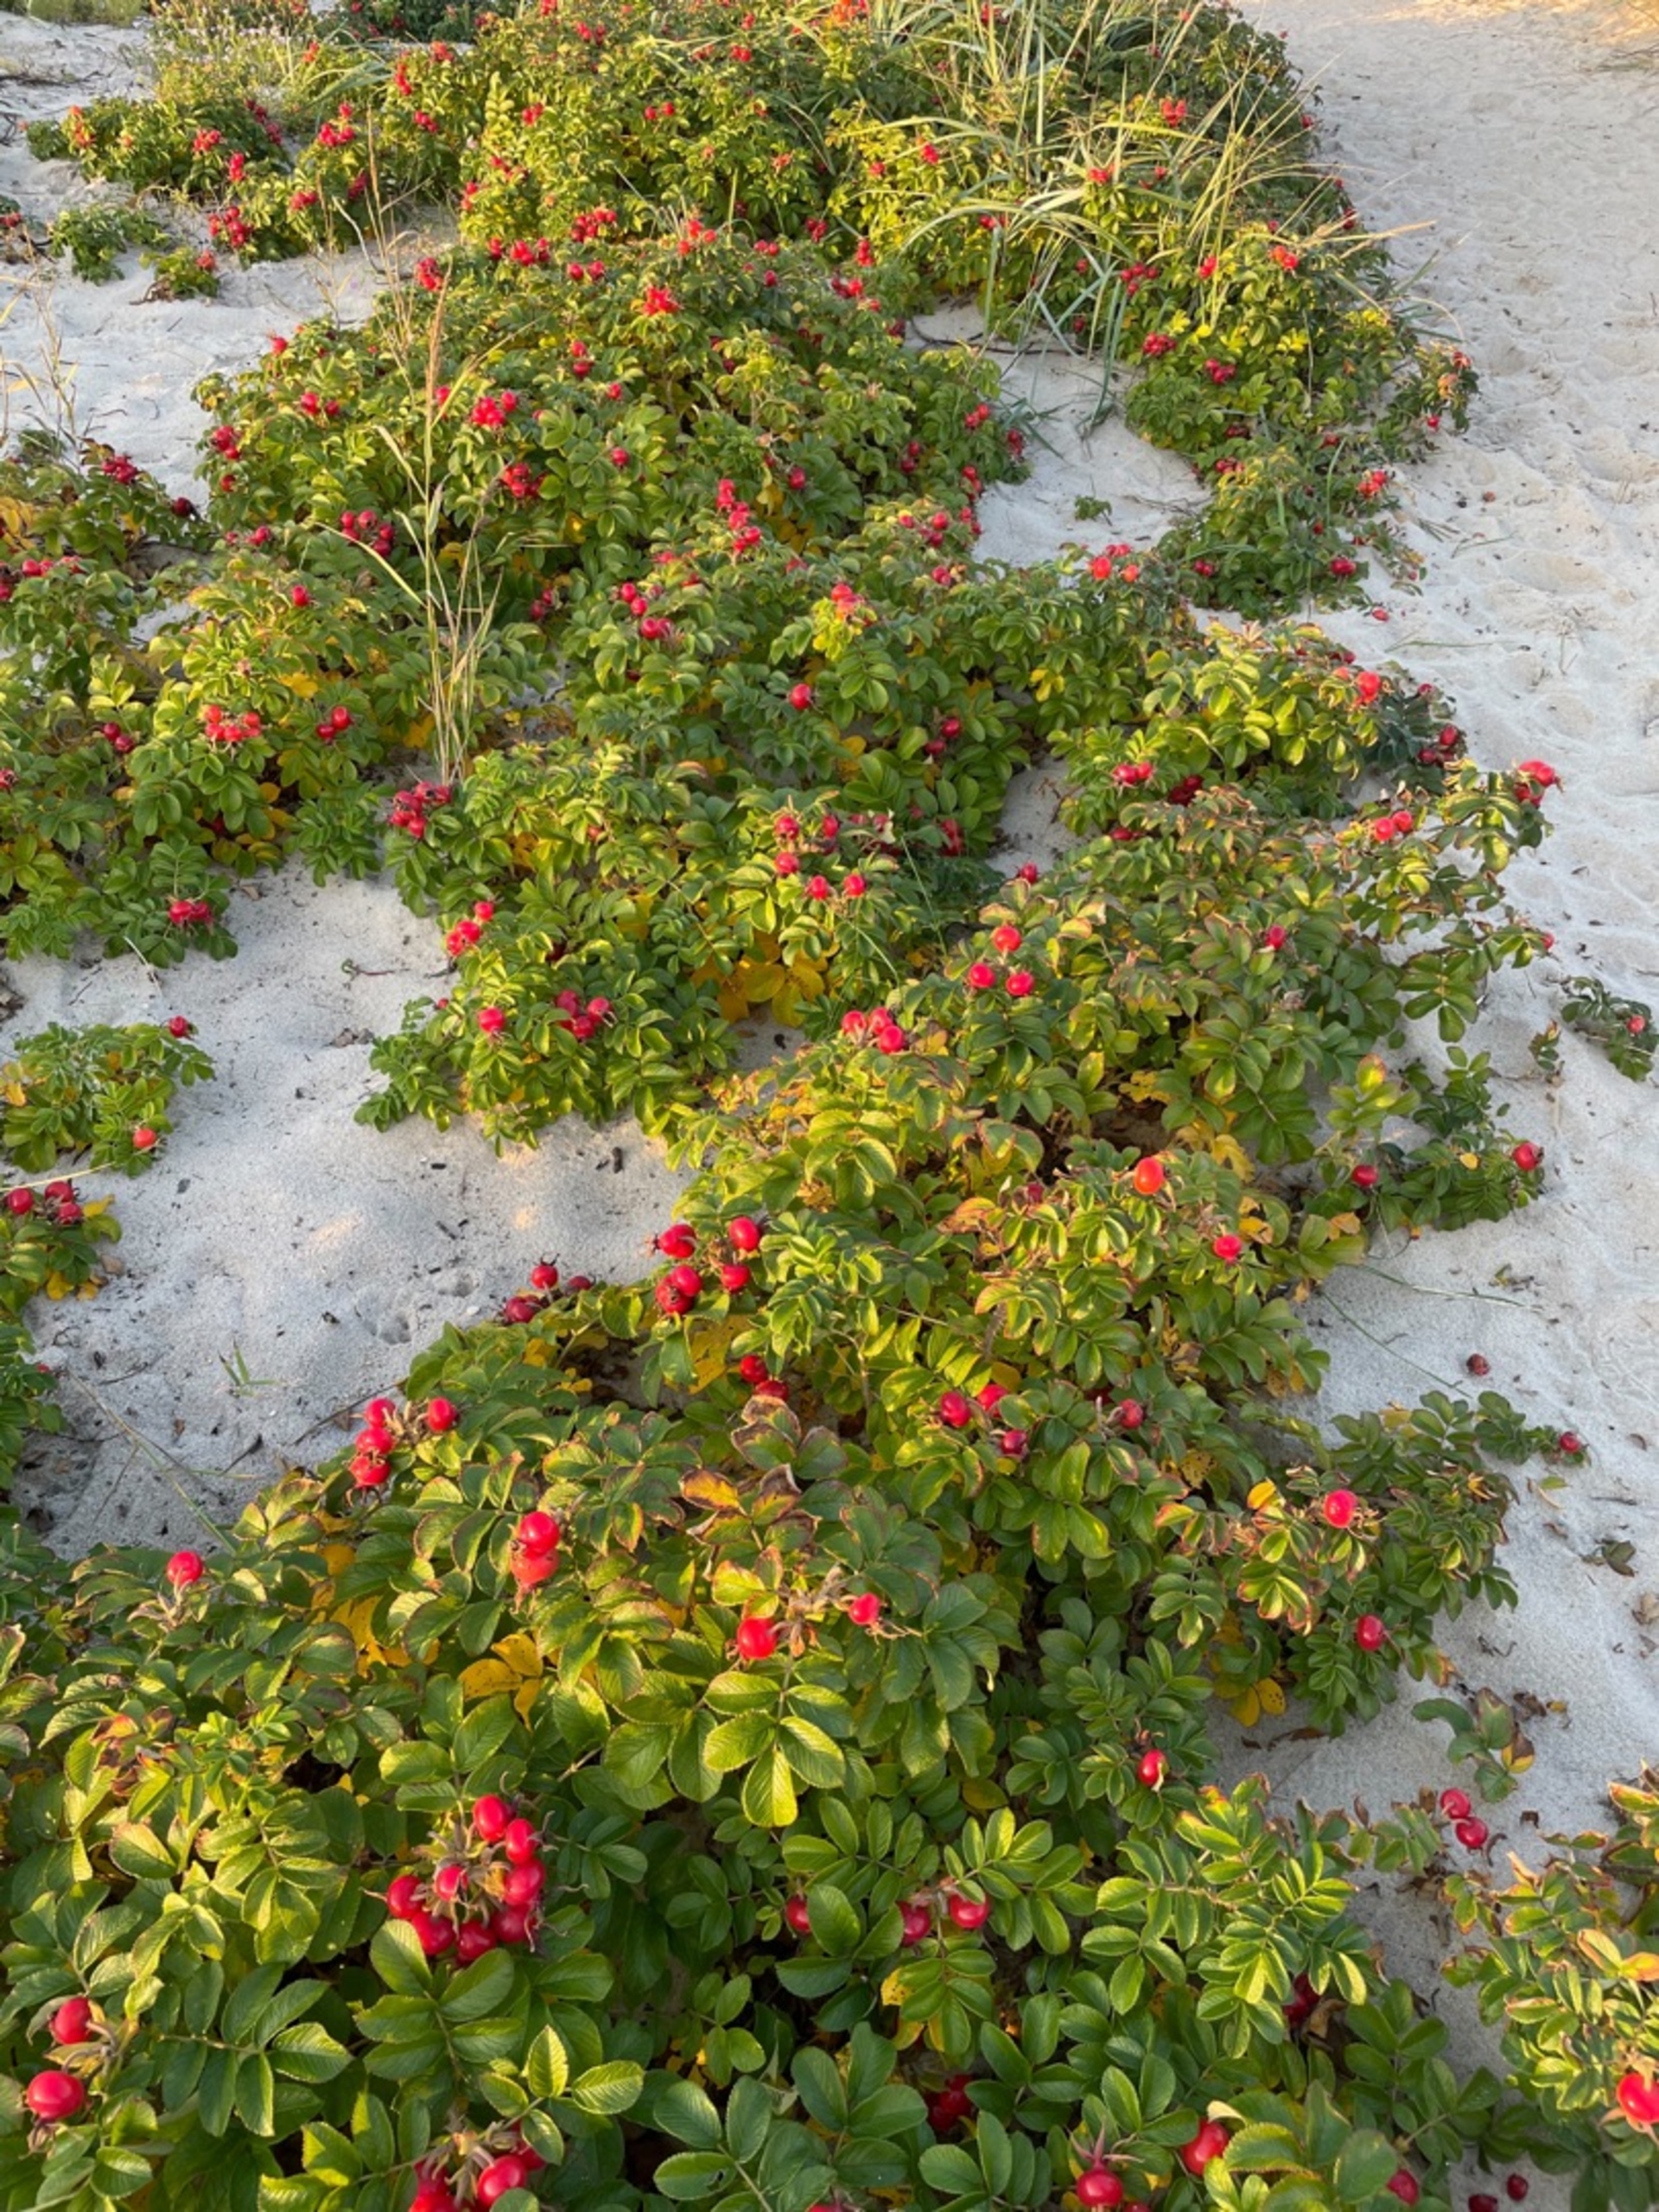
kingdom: Plantae
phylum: Tracheophyta
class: Magnoliopsida
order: Rosales
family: Rosaceae
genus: Rosa
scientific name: Rosa rugosa
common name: Rynket rose
